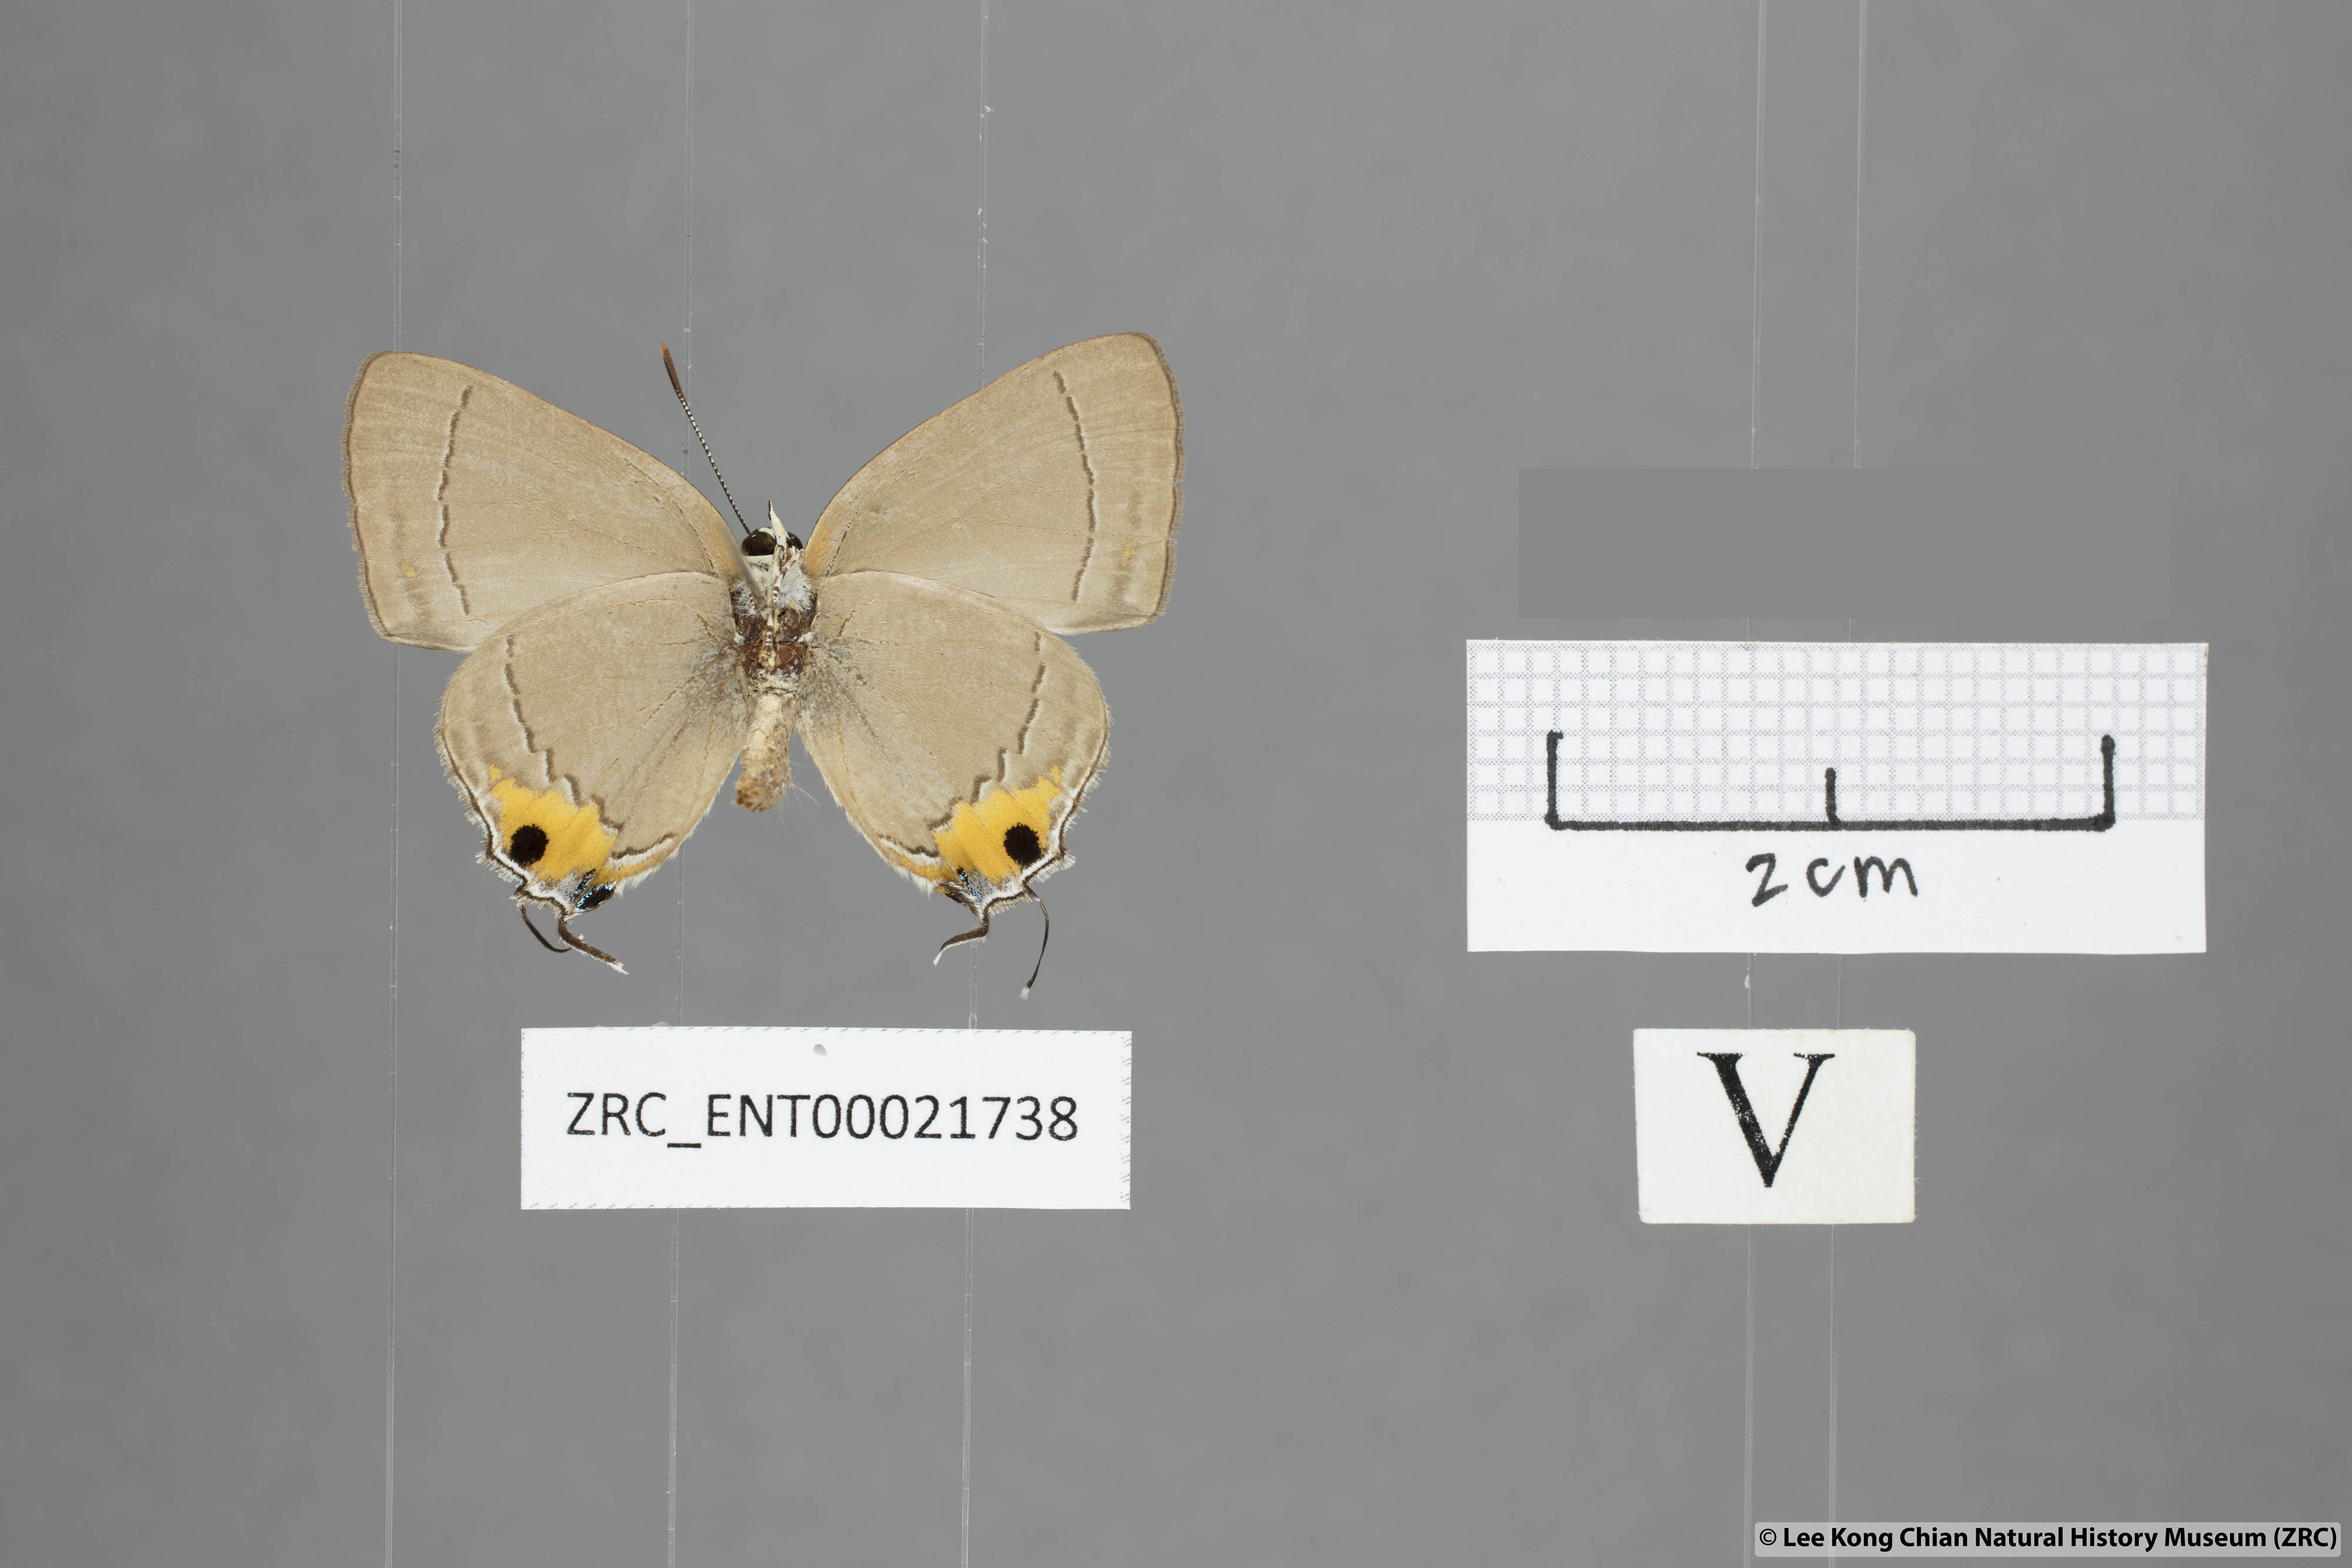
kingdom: Animalia
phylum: Arthropoda
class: Insecta
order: Lepidoptera
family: Lycaenidae
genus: Pratapa
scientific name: Pratapa icetas
